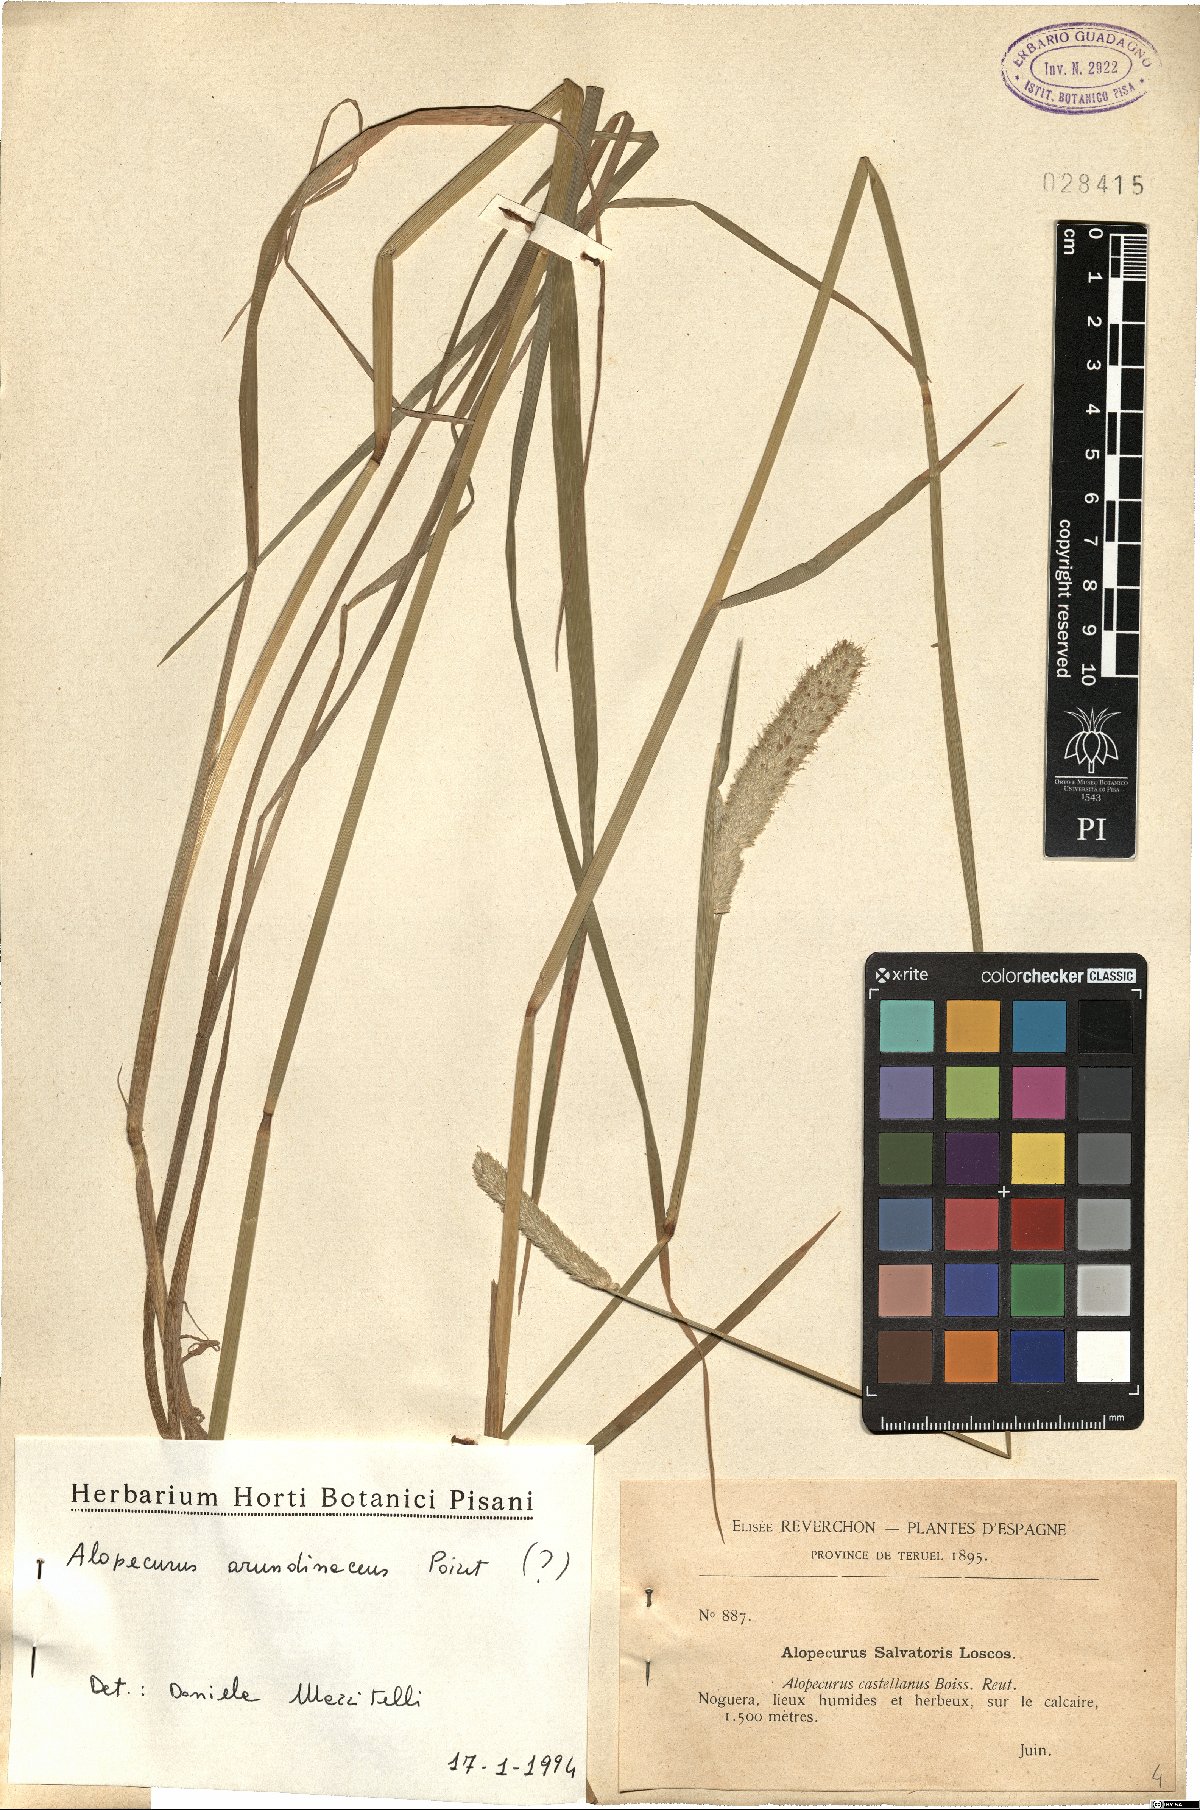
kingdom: Plantae
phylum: Tracheophyta
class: Liliopsida
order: Poales
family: Poaceae
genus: Alopecurus
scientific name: Alopecurus arundinaceus
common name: Creeping meadow foxtail
